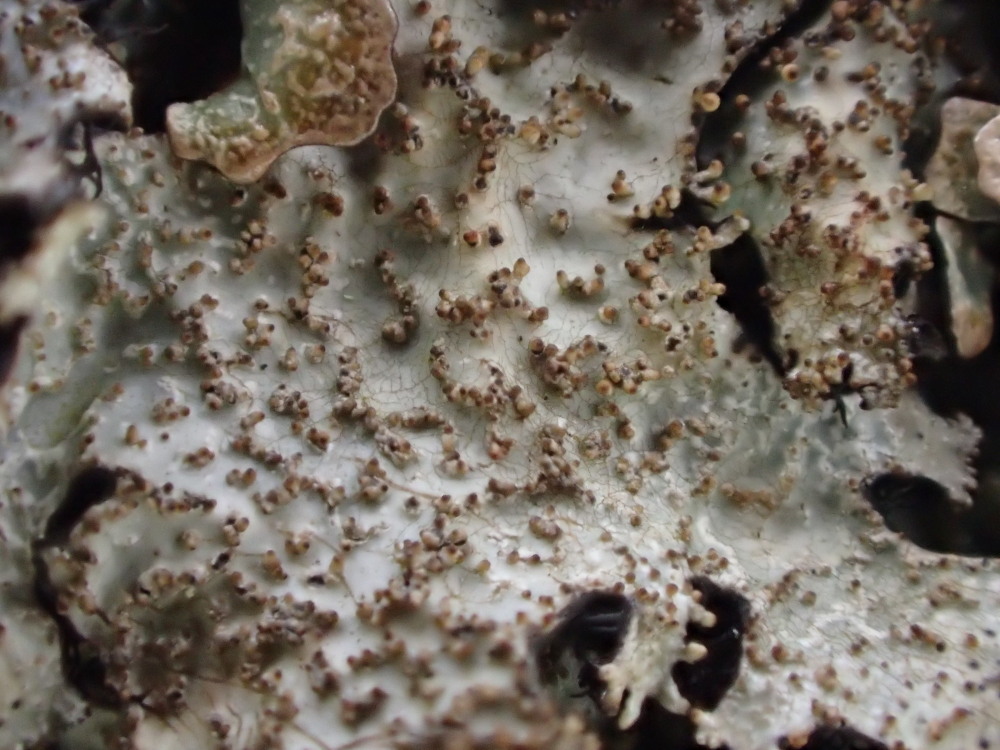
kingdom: Fungi
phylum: Ascomycota
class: Lecanoromycetes
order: Lecanorales
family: Parmeliaceae
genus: Parmelia
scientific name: Parmelia saxatilis
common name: farve-skållav
